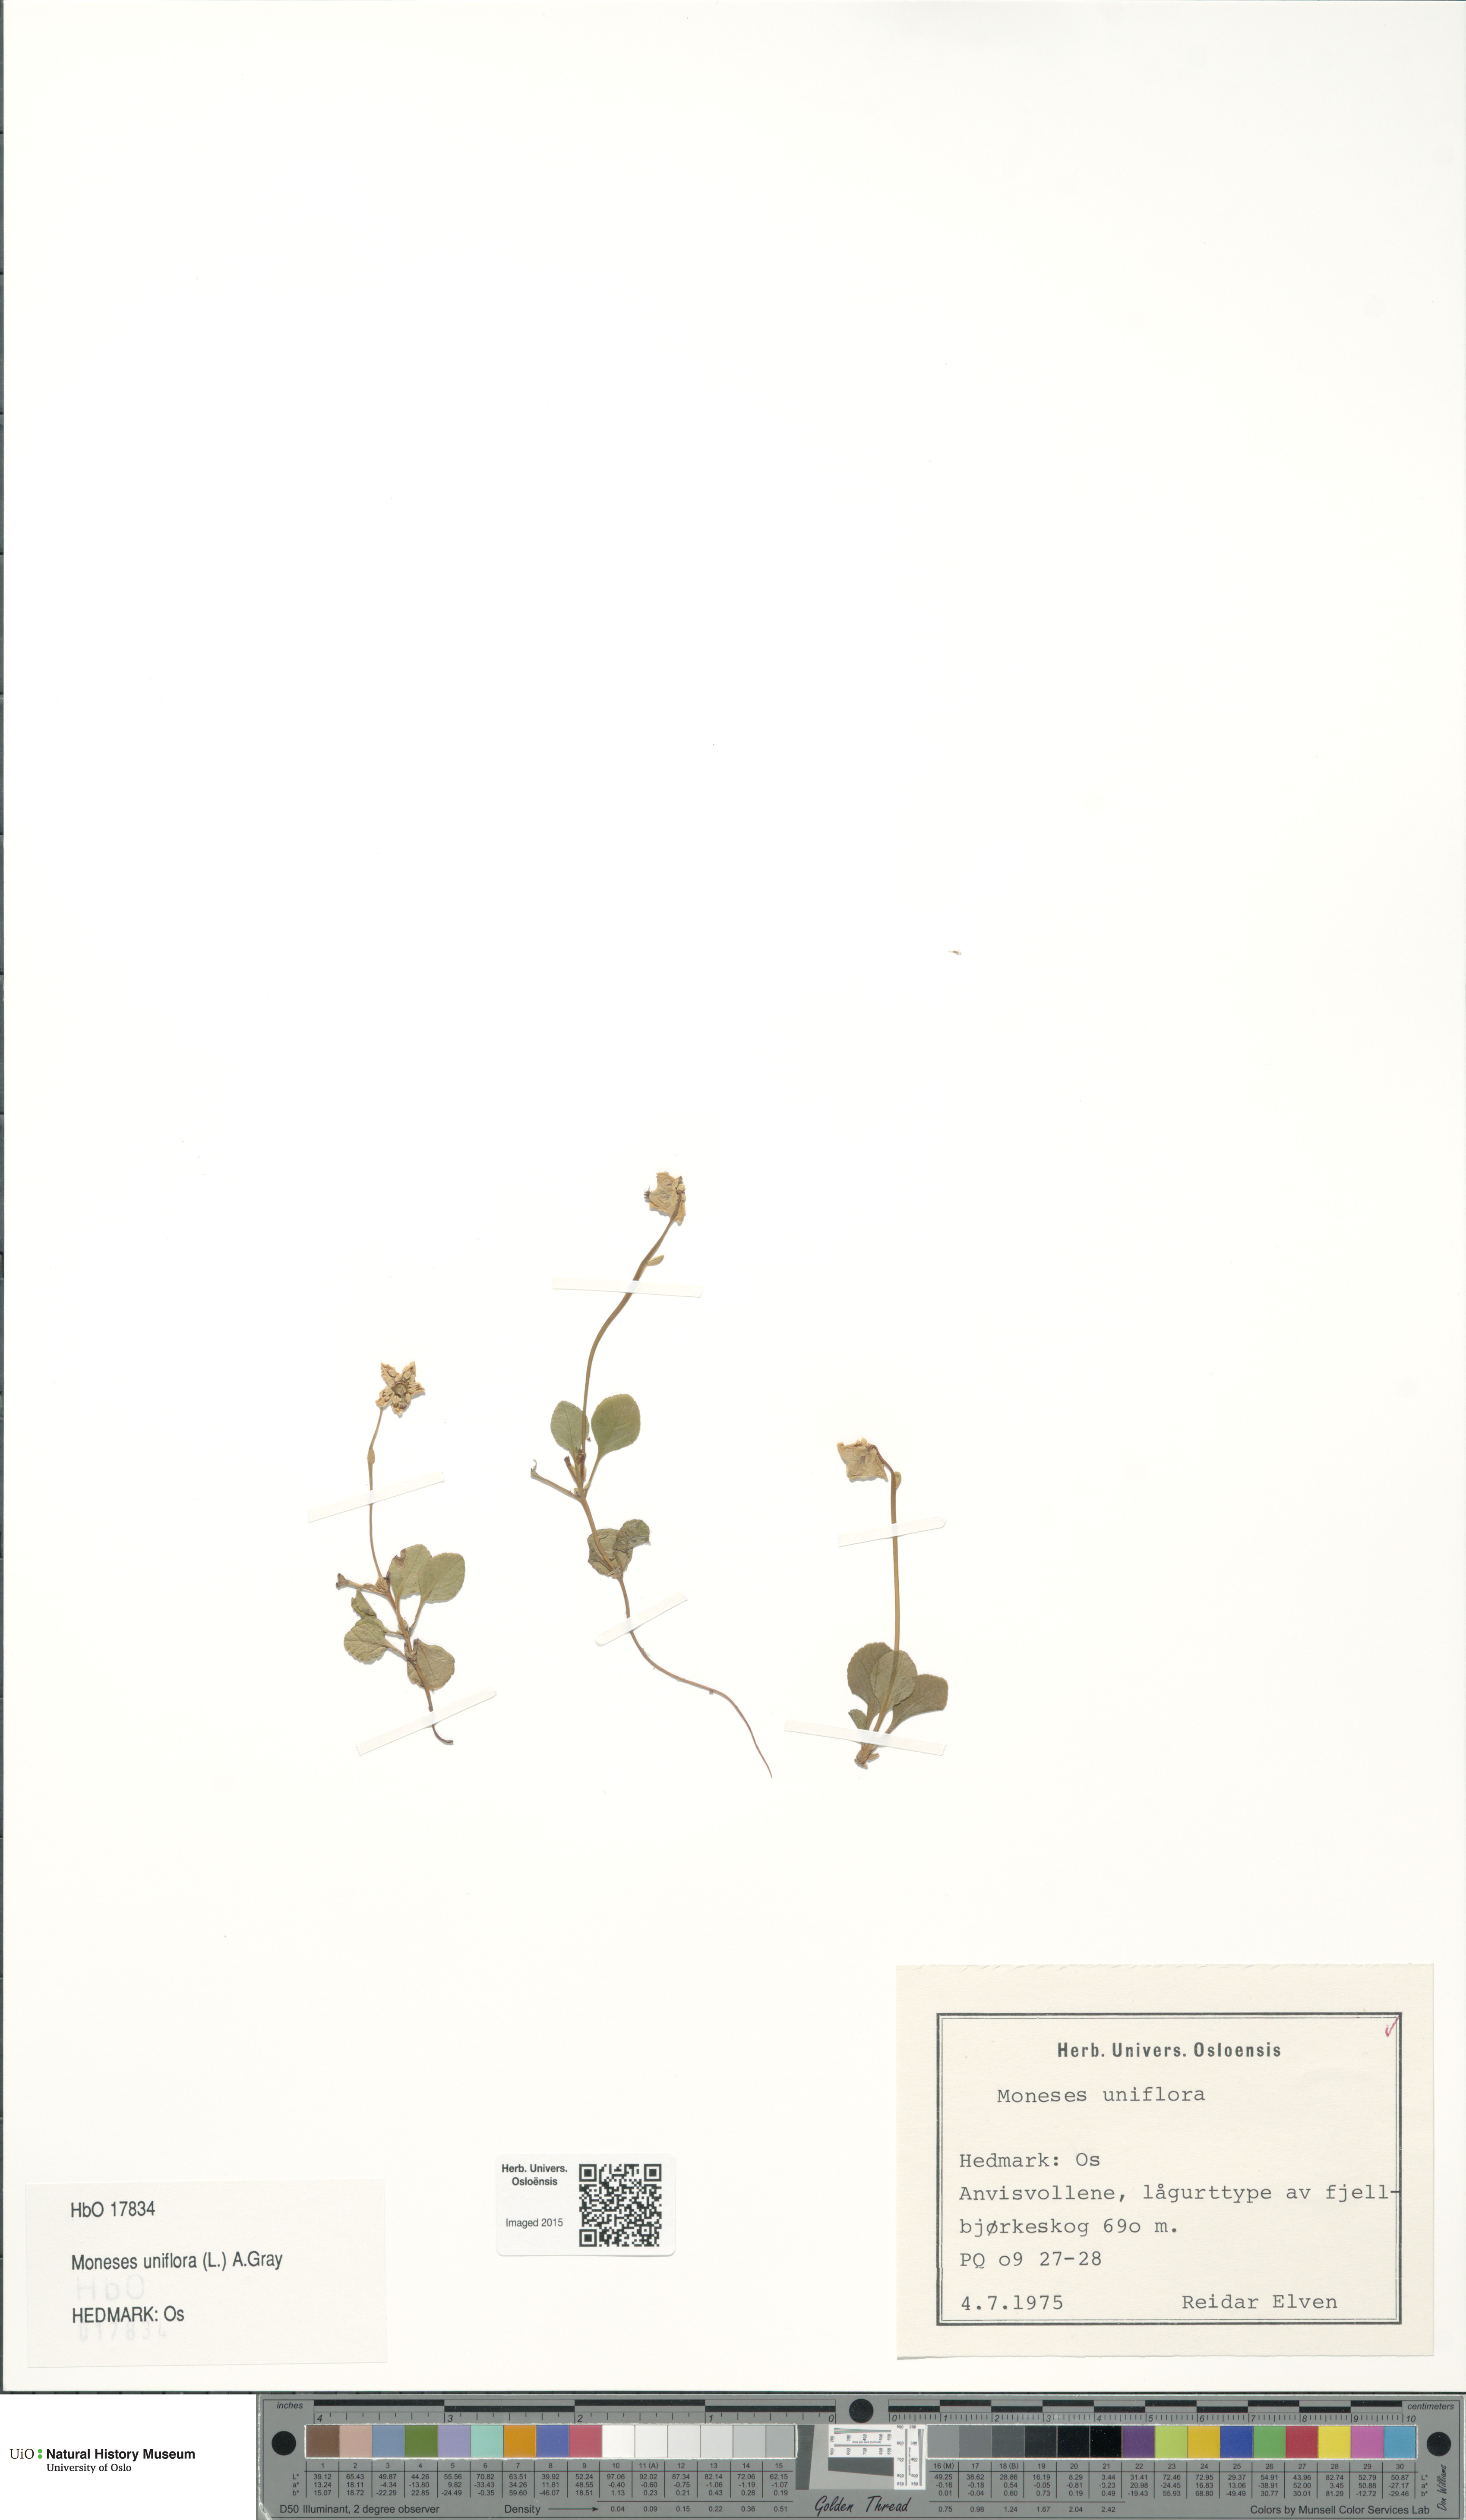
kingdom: Plantae
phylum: Tracheophyta
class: Magnoliopsida
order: Ericales
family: Ericaceae
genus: Moneses
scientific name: Moneses uniflora
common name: One-flowered wintergreen
